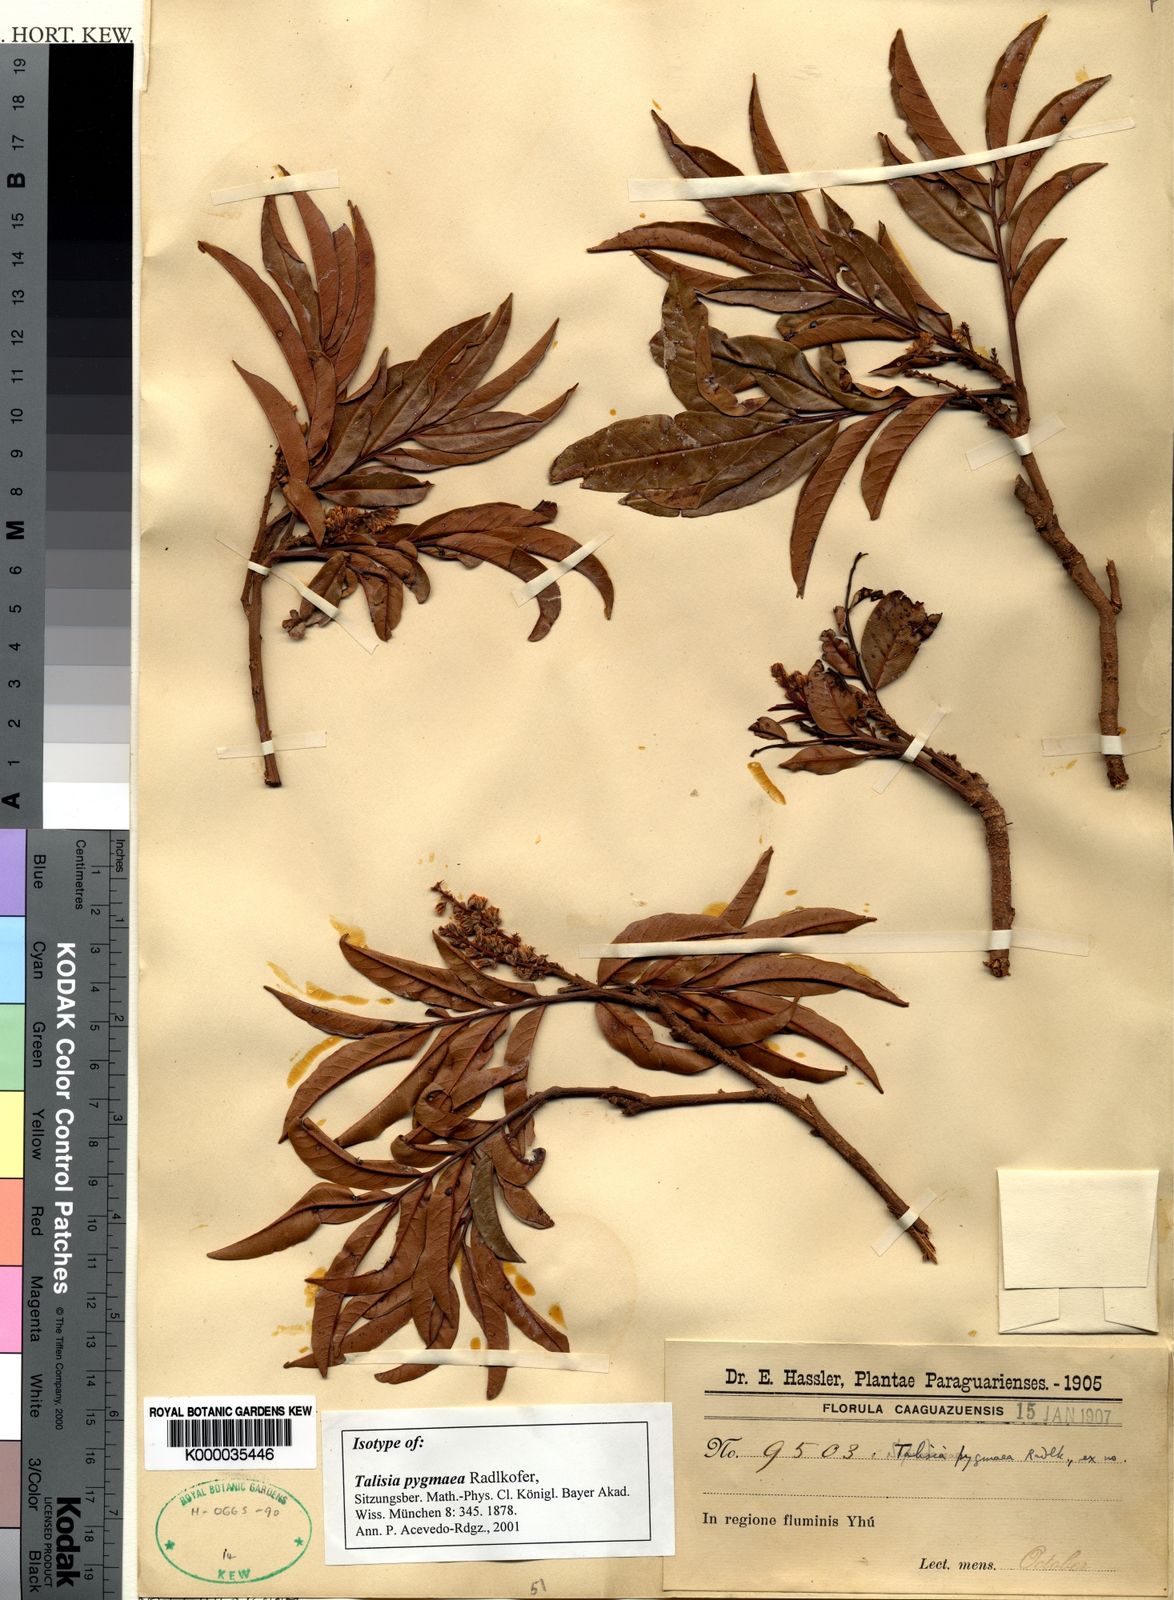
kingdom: Plantae
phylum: Tracheophyta
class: Magnoliopsida
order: Sapindales
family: Sapindaceae
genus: Talisia
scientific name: Talisia angustifolia
